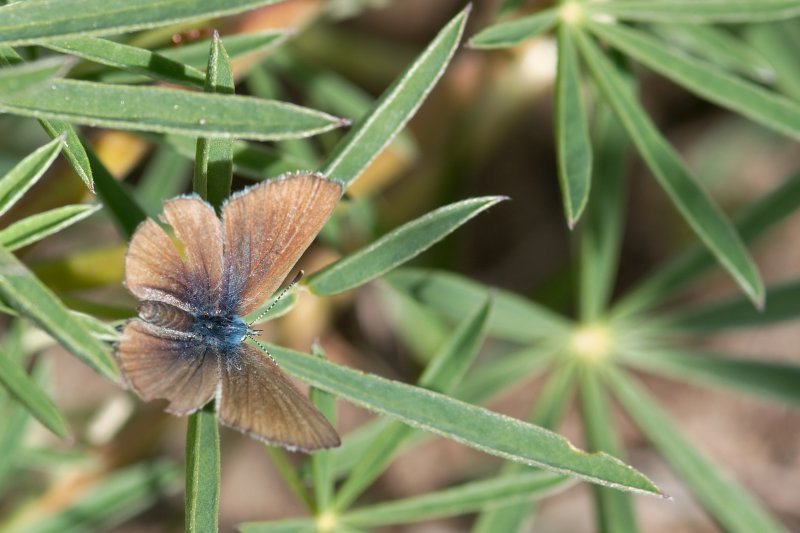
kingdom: Animalia
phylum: Arthropoda
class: Insecta
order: Lepidoptera
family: Lycaenidae
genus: Icaricia
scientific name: Icaricia icarioides
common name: Boisduval's Blue
